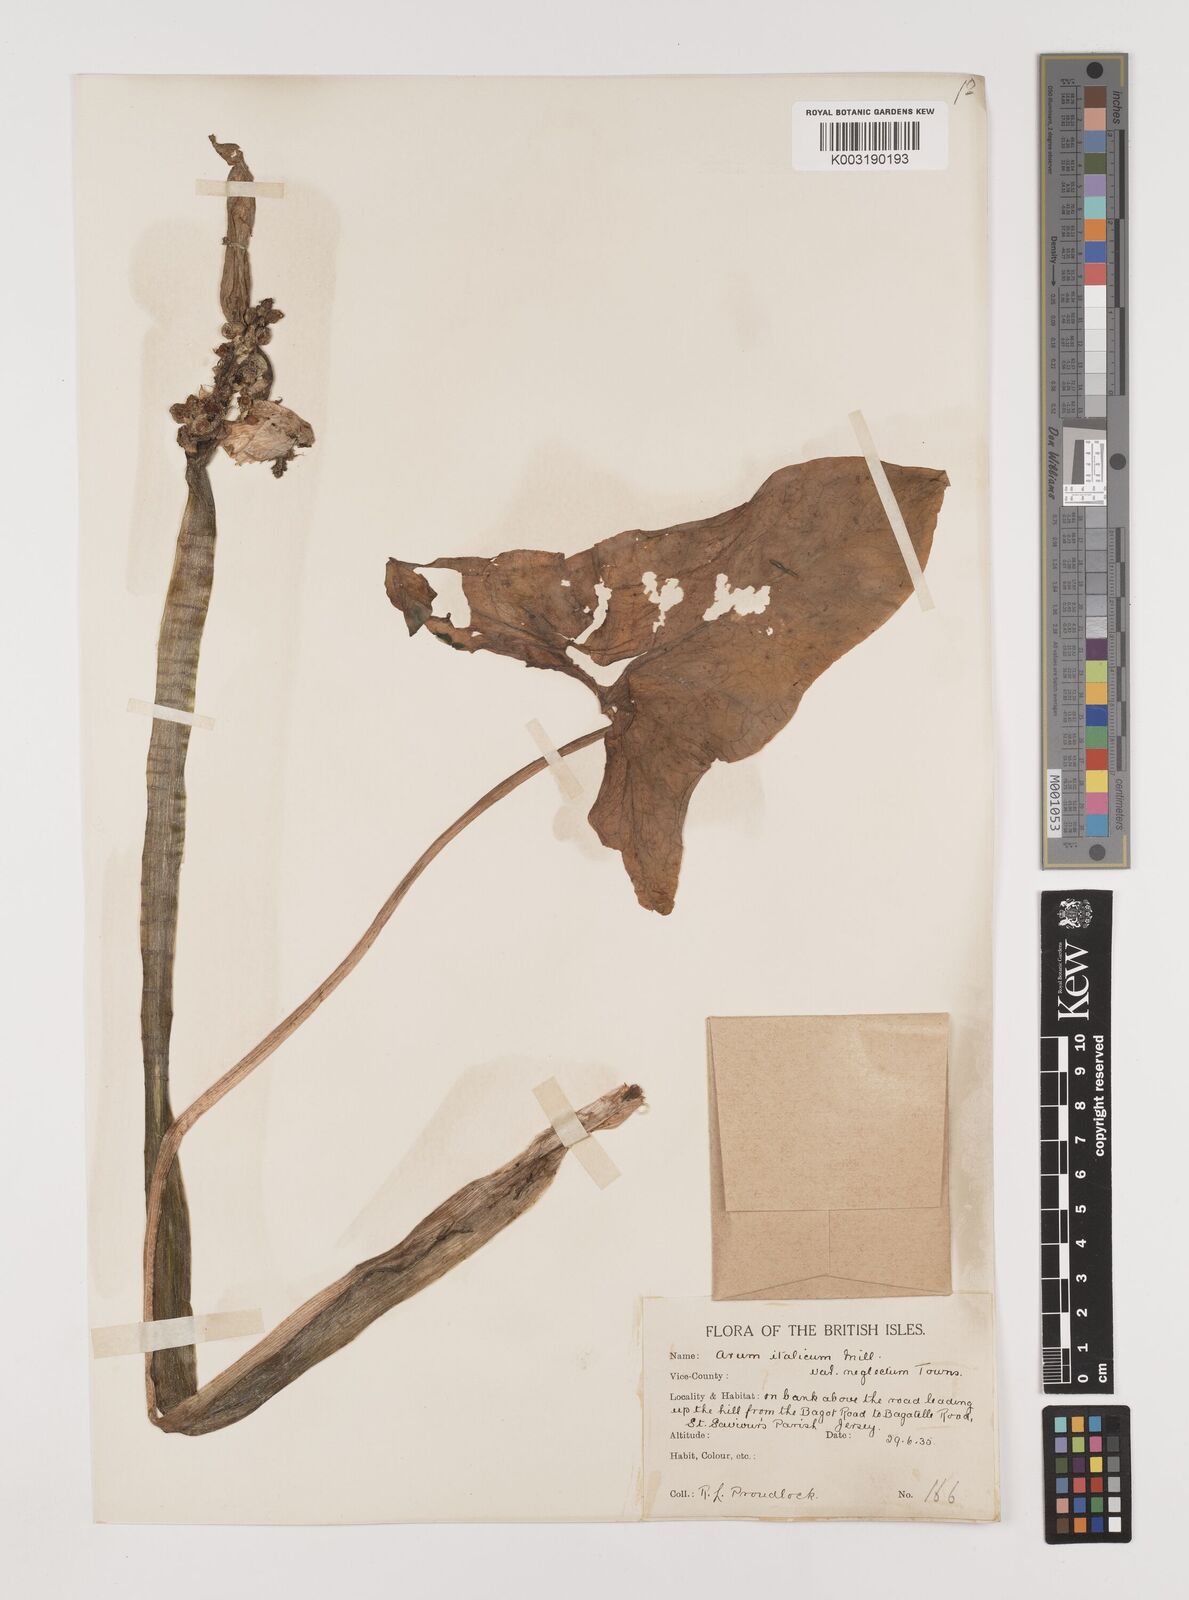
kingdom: Plantae
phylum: Tracheophyta
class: Liliopsida
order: Alismatales
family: Araceae
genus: Arum
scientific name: Arum italicum
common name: Italian lords-and-ladies
